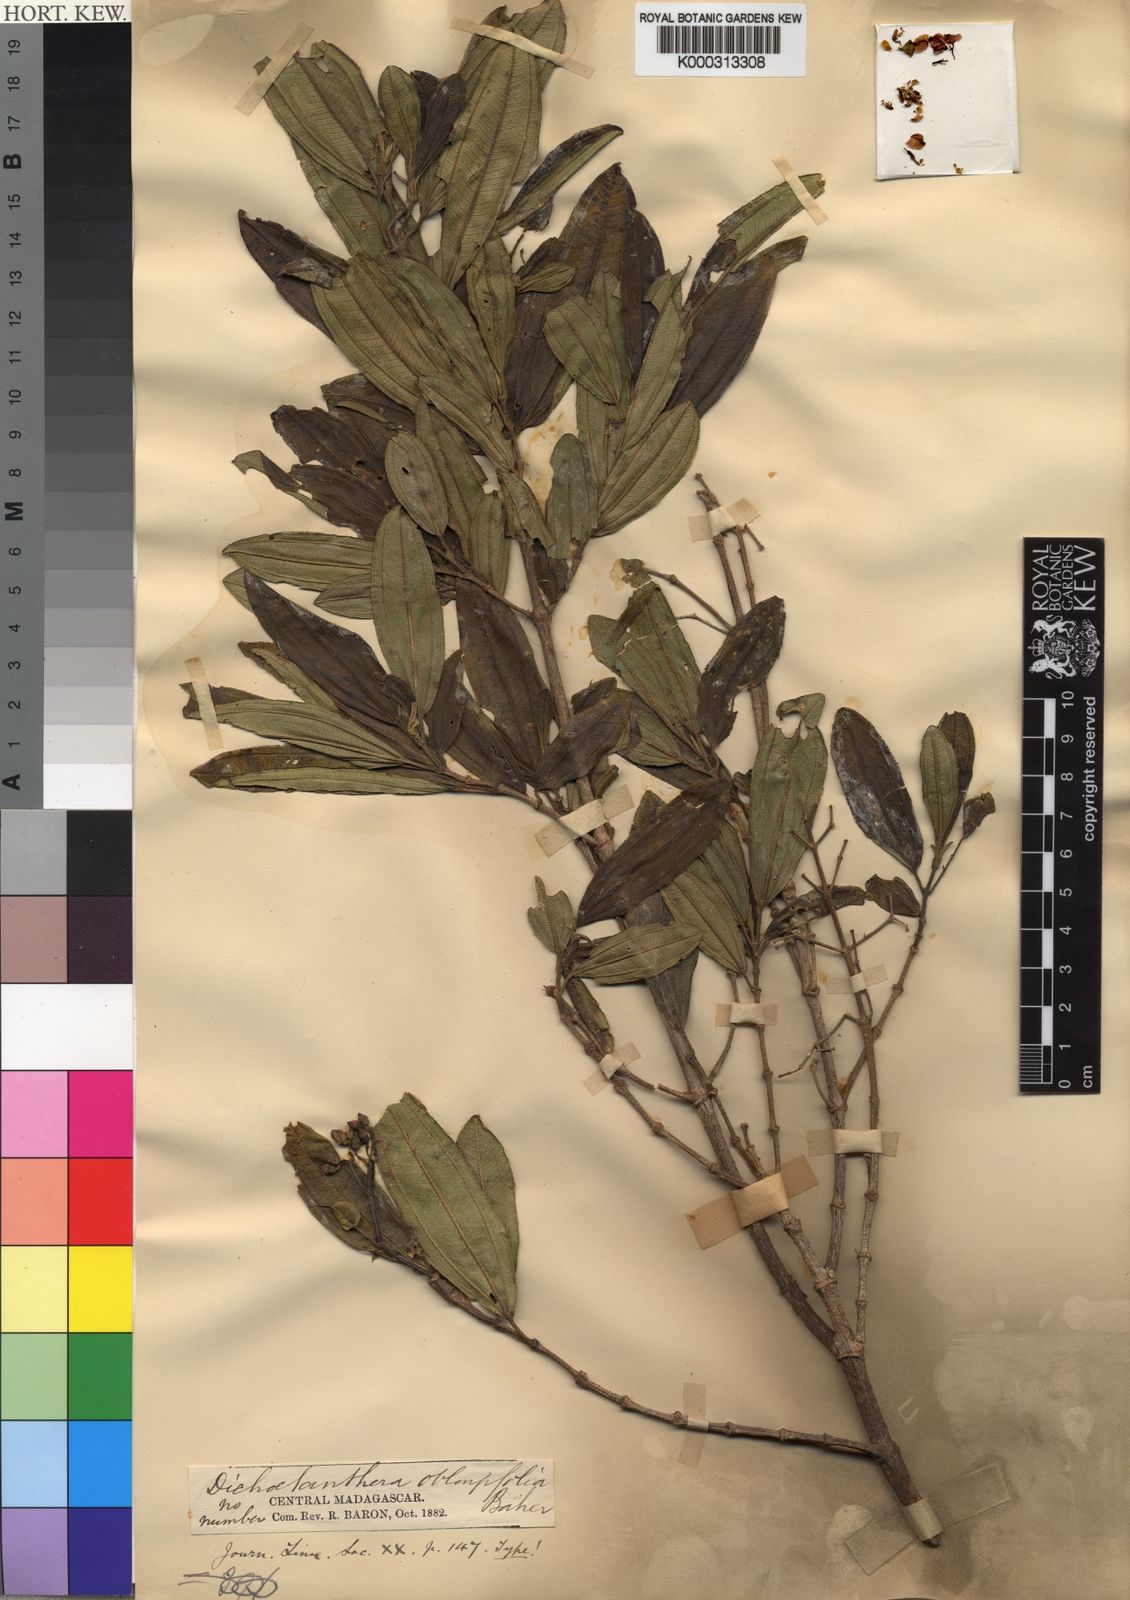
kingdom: Plantae
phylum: Tracheophyta
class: Magnoliopsida
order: Myrtales
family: Melastomataceae
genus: Dichaetanthera
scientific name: Dichaetanthera oblongifolia
